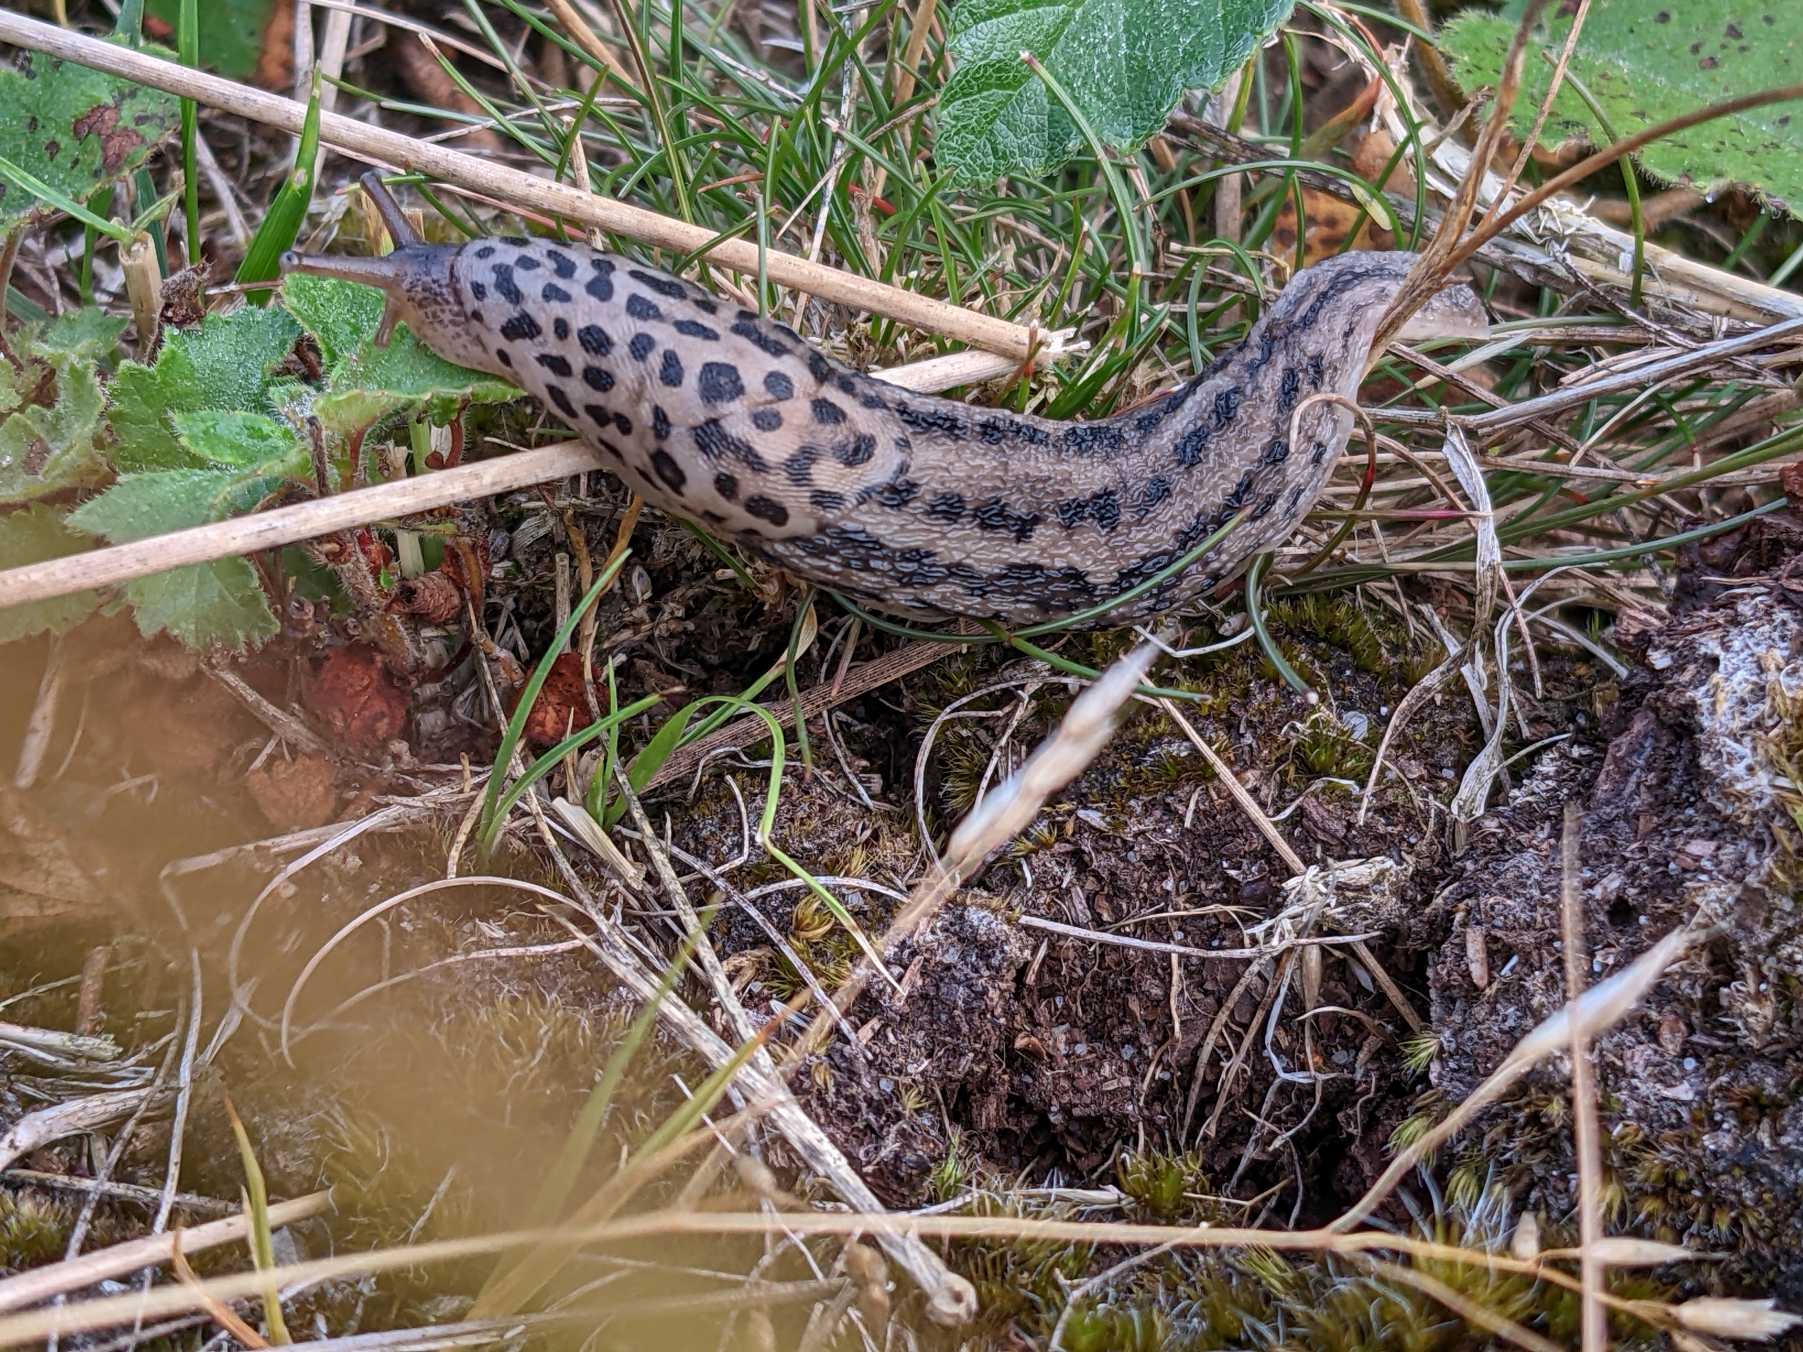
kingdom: Animalia
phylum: Mollusca
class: Gastropoda
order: Stylommatophora
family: Limacidae
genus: Limax
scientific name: Limax maximus
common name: Pantersnegl
